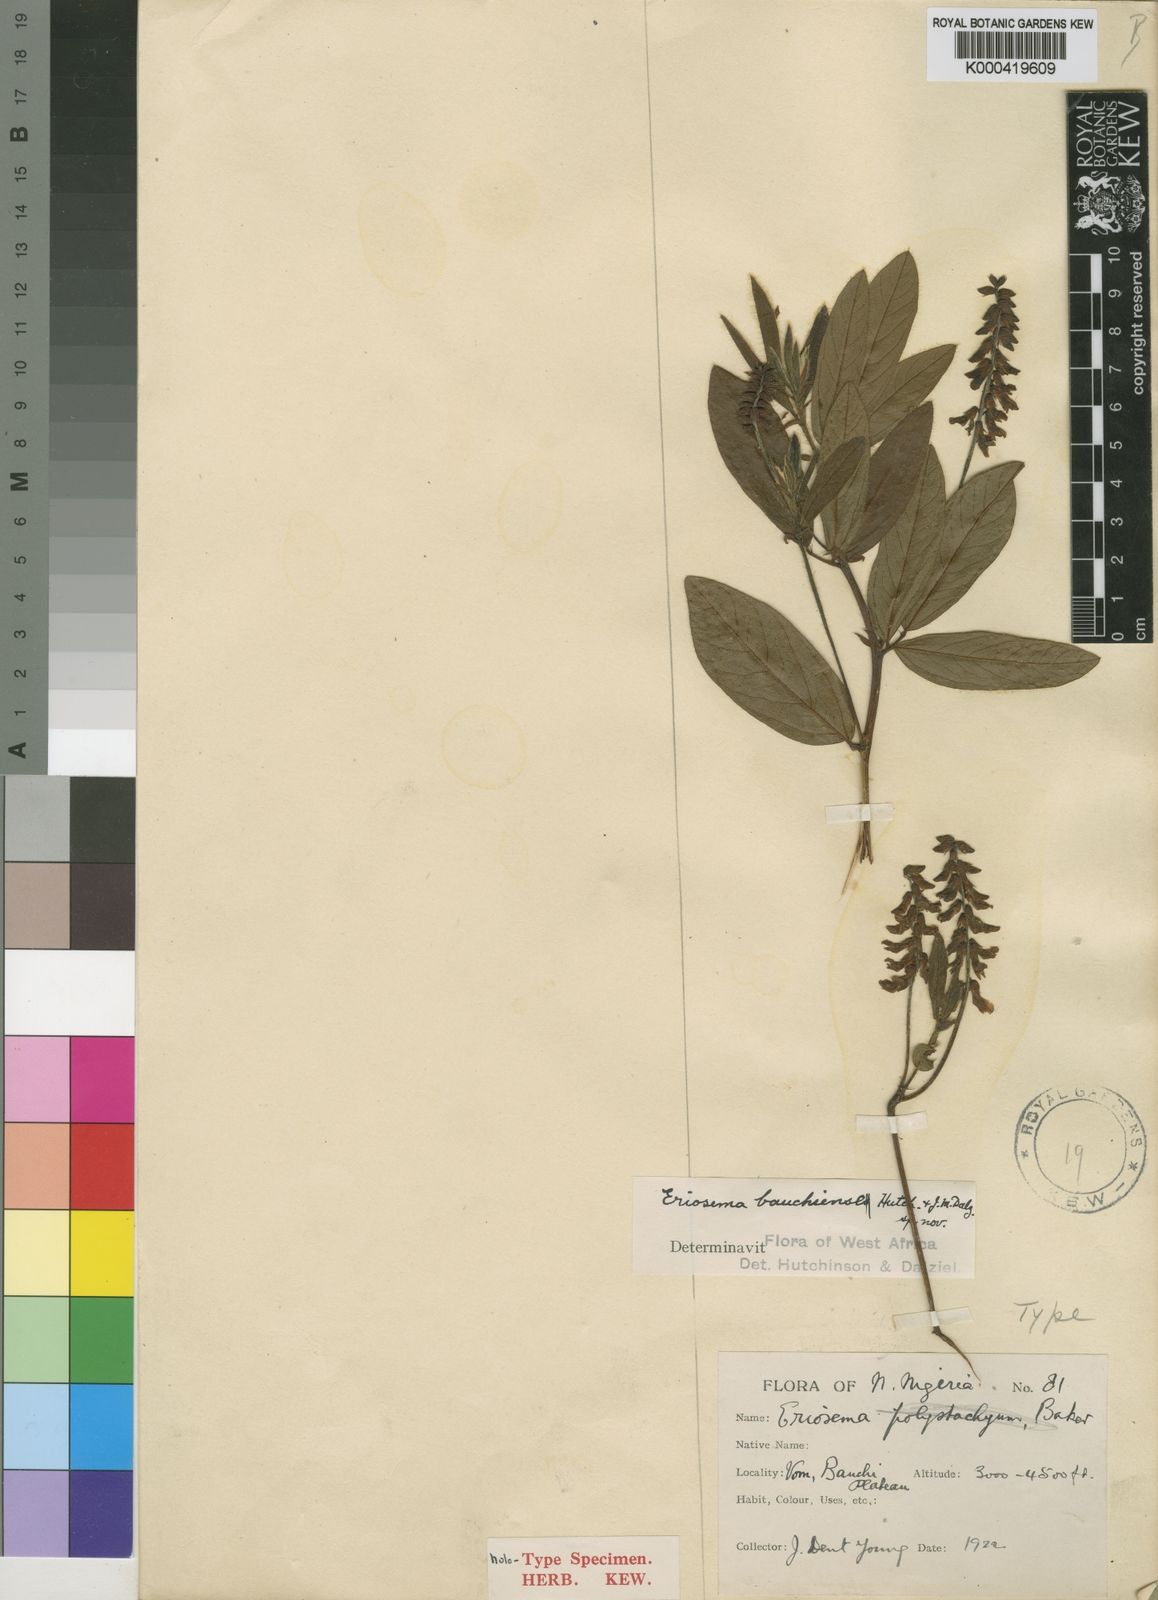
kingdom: Plantae
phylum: Tracheophyta
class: Magnoliopsida
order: Fabales
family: Fabaceae
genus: Eriosema
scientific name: Eriosema bauchiense
